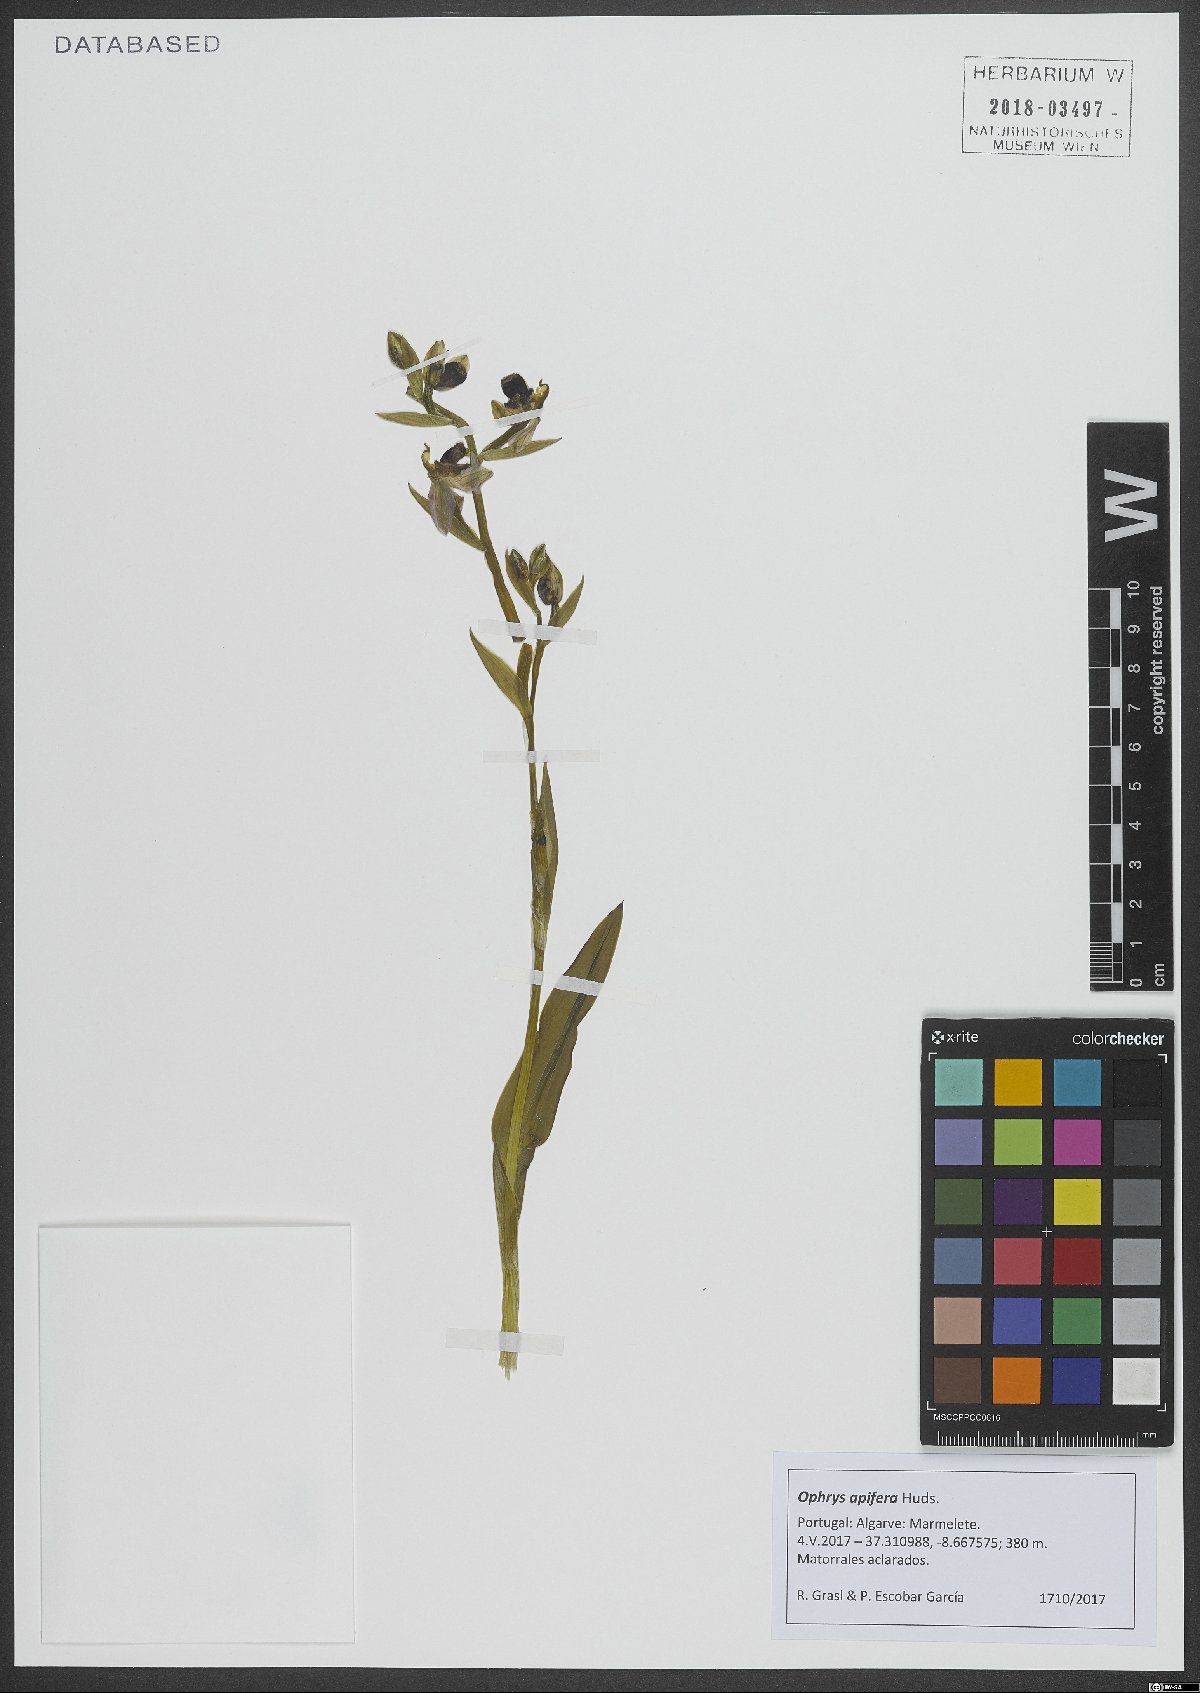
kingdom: Plantae
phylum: Tracheophyta
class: Liliopsida
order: Asparagales
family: Orchidaceae
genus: Ophrys
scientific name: Ophrys apifera
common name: Bee orchid
